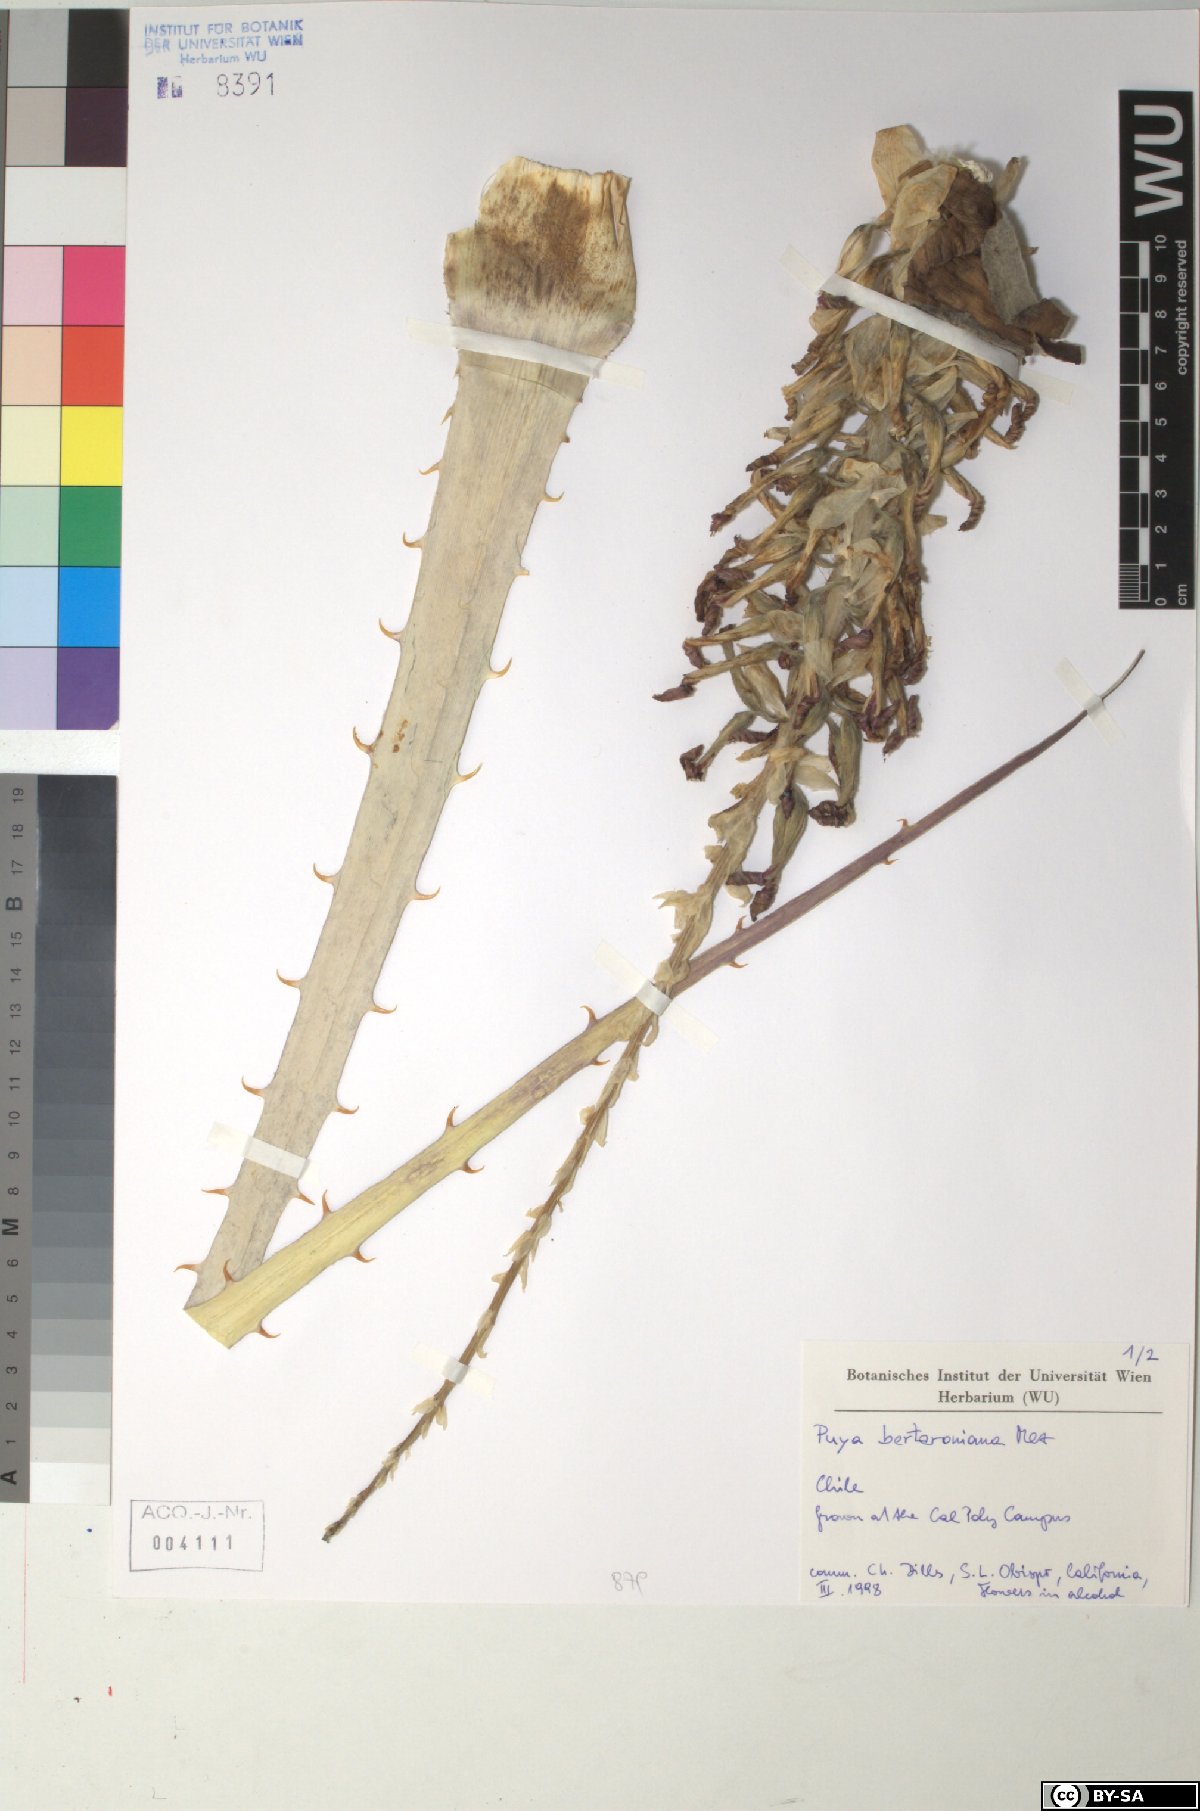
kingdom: Plantae
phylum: Tracheophyta
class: Liliopsida
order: Poales
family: Bromeliaceae
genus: Puya
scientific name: Puya
